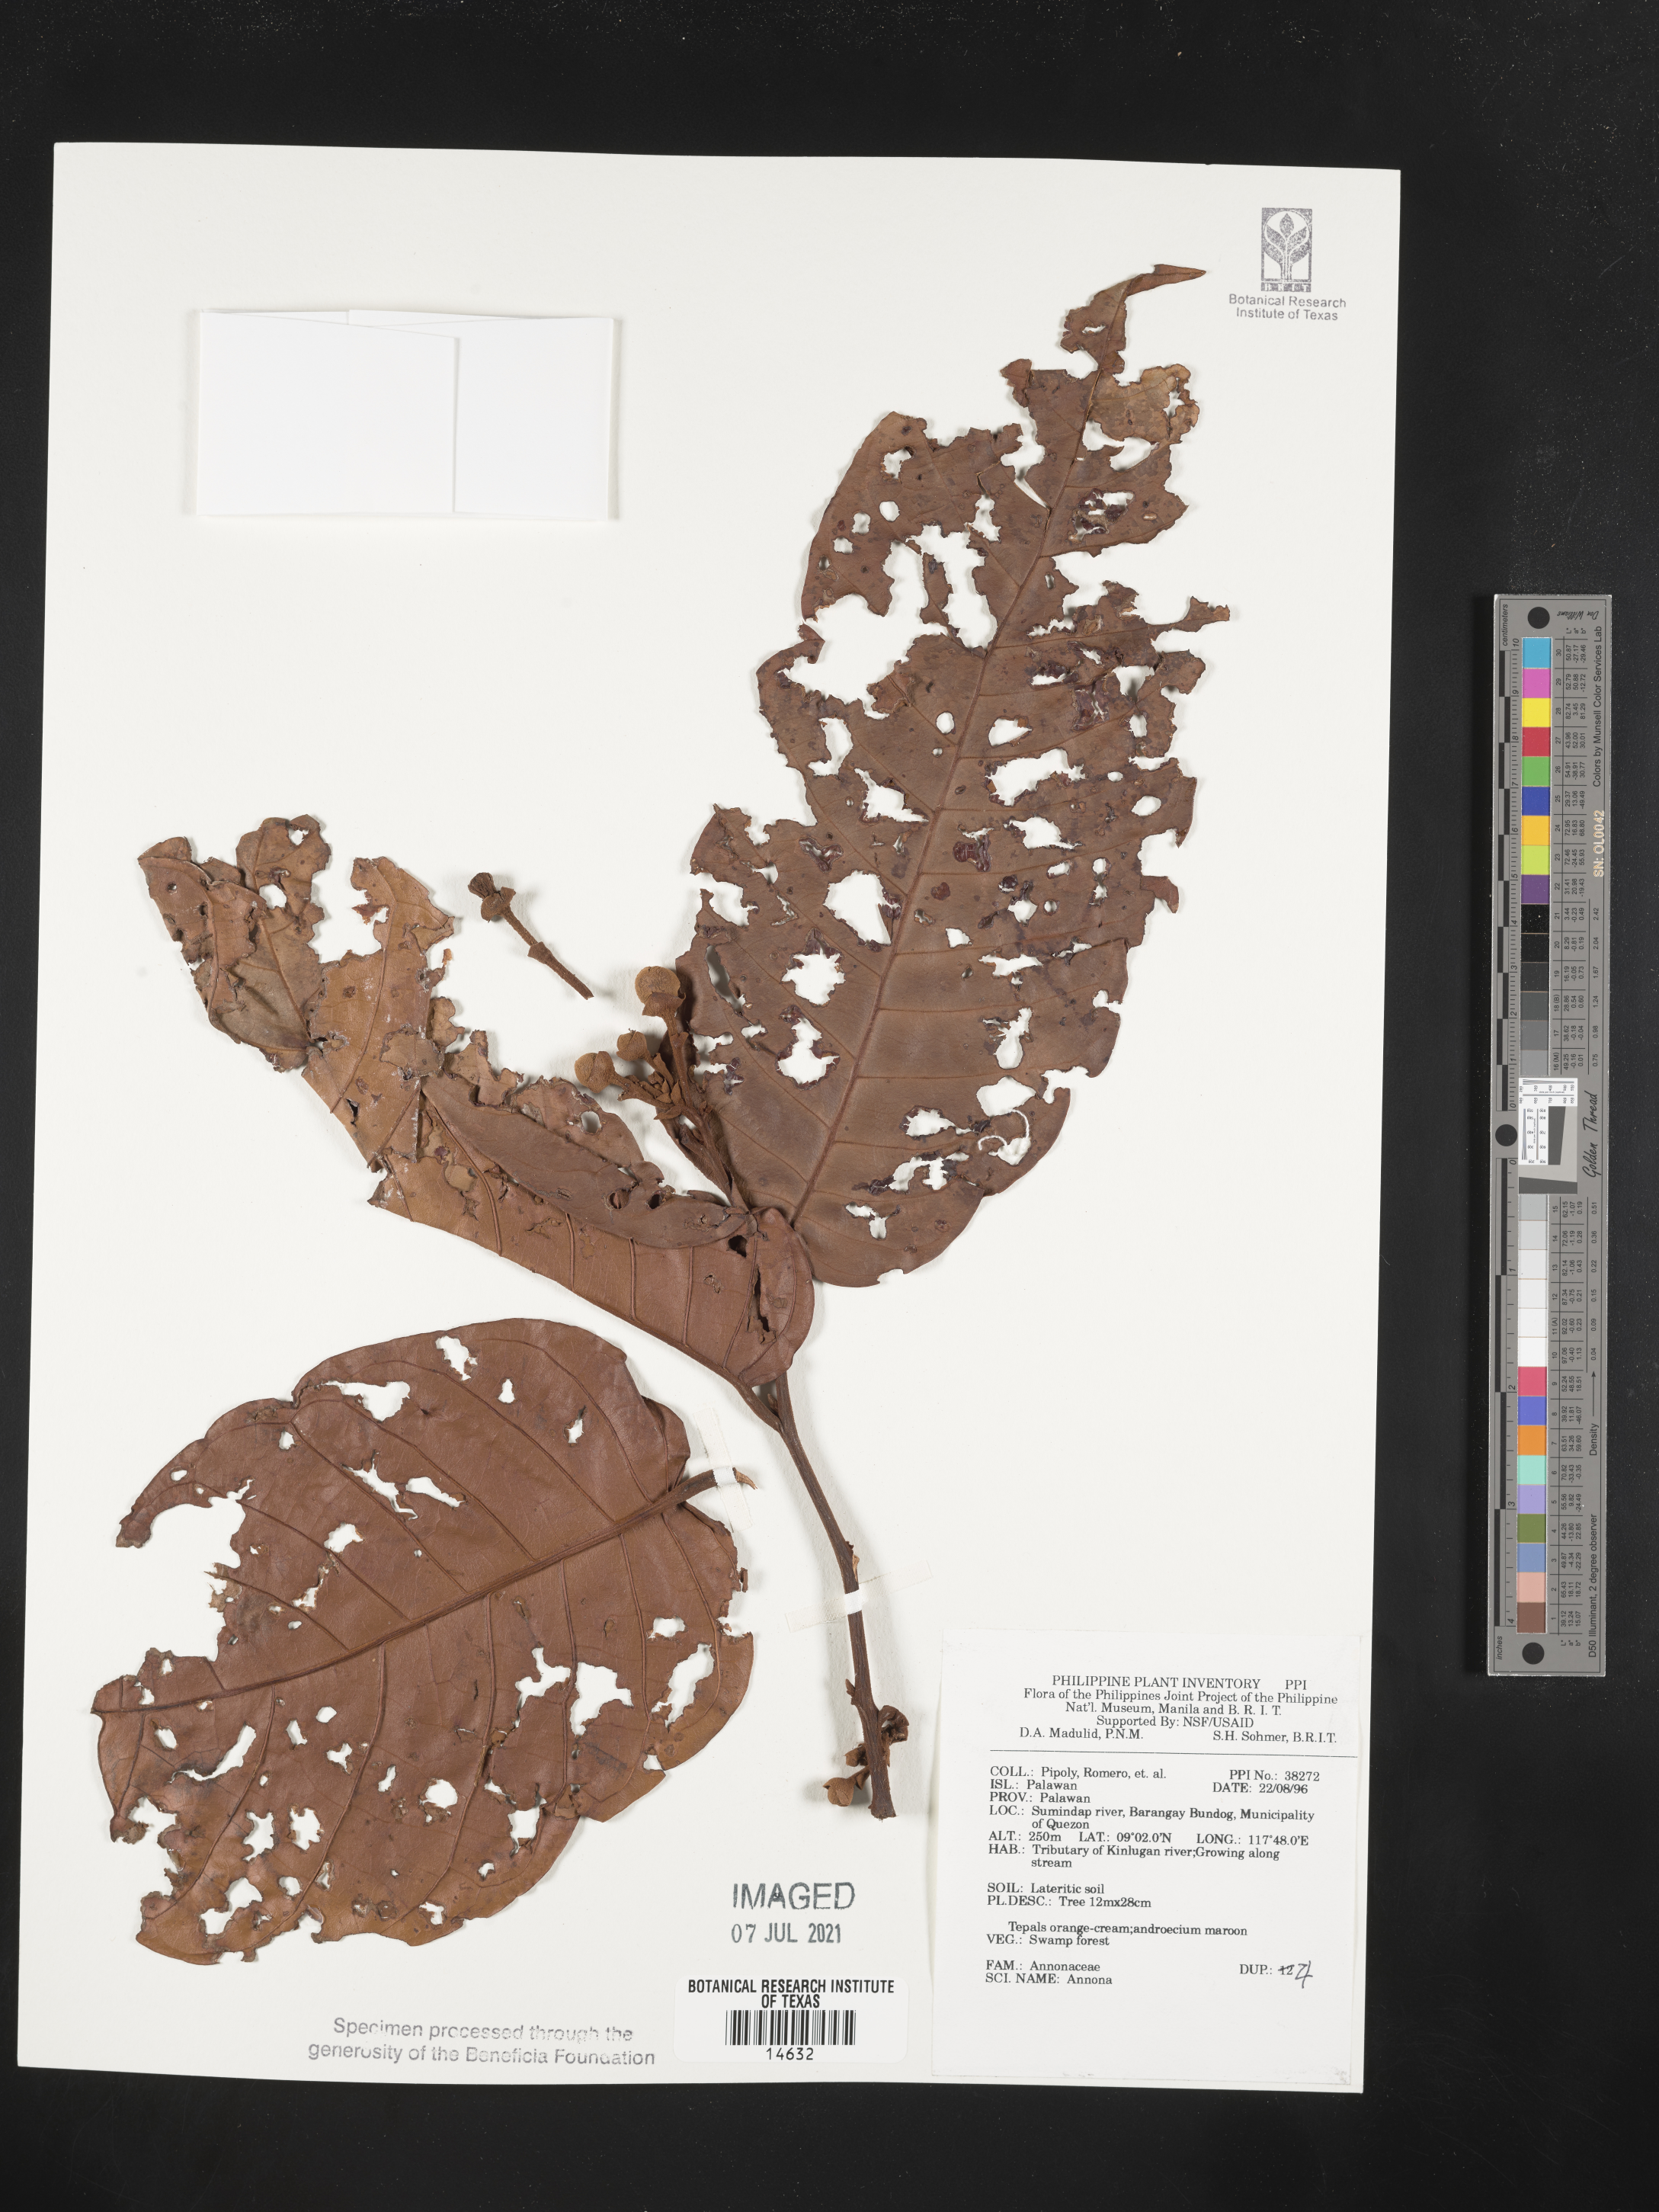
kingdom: Plantae
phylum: Tracheophyta
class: Magnoliopsida
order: Magnoliales
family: Annonaceae
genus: Annona
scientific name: Annona
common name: Anona
